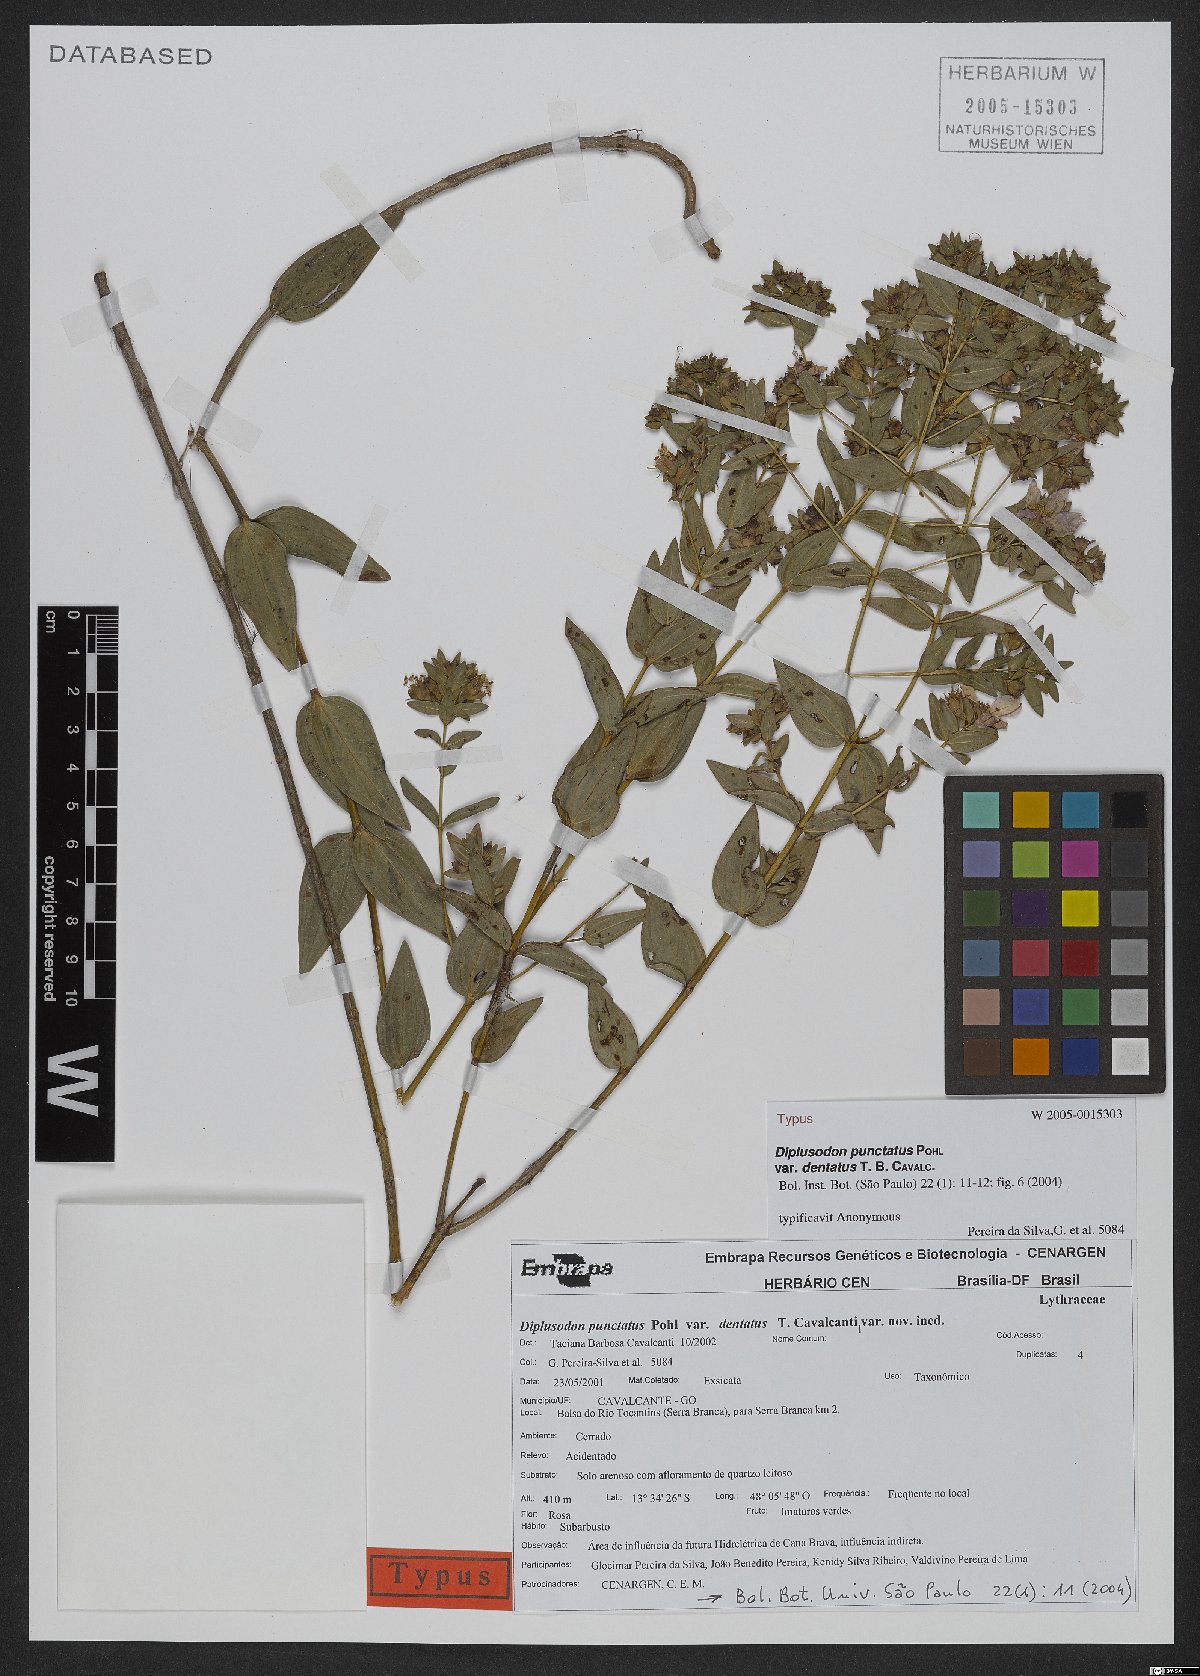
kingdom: Plantae
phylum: Tracheophyta
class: Magnoliopsida
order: Myrtales
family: Lythraceae
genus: Diplusodon
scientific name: Diplusodon punctatus
